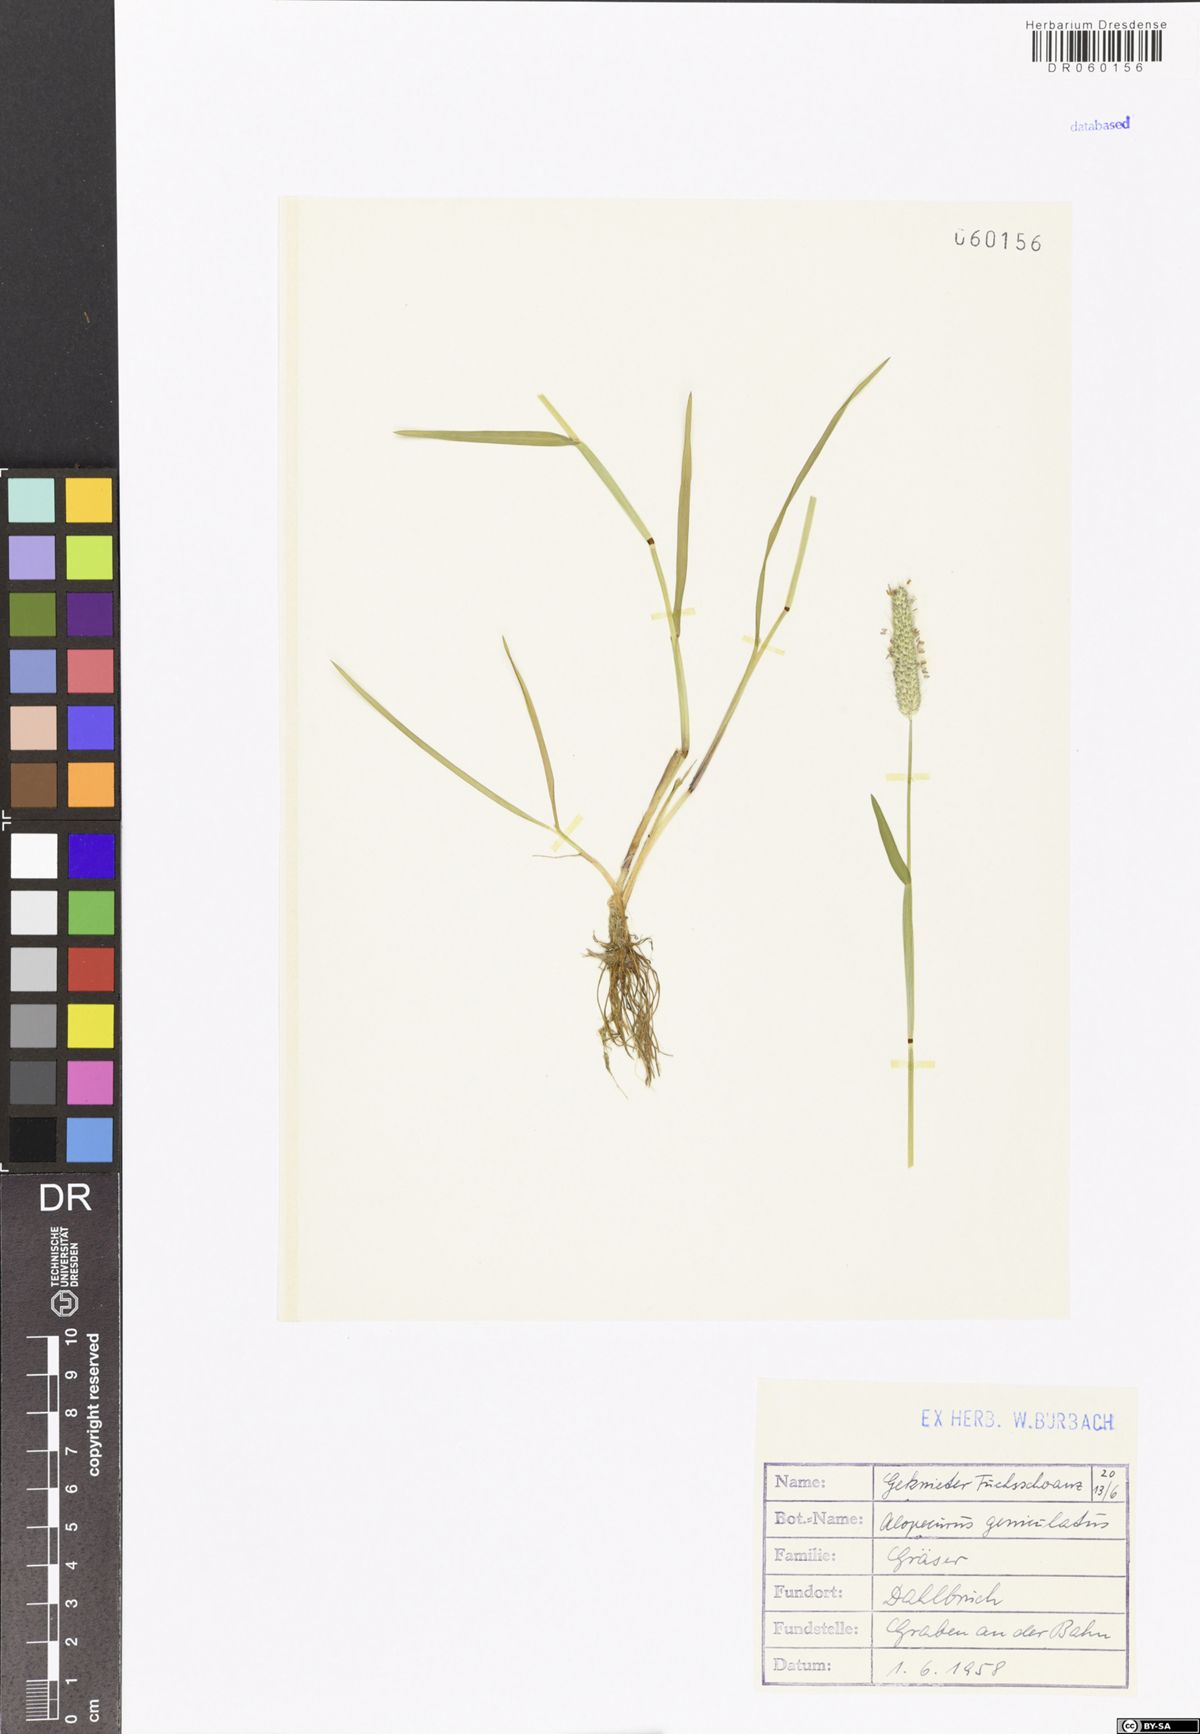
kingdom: Plantae
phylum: Tracheophyta
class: Liliopsida
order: Poales
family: Poaceae
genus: Alopecurus
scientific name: Alopecurus geniculatus
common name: Water foxtail
